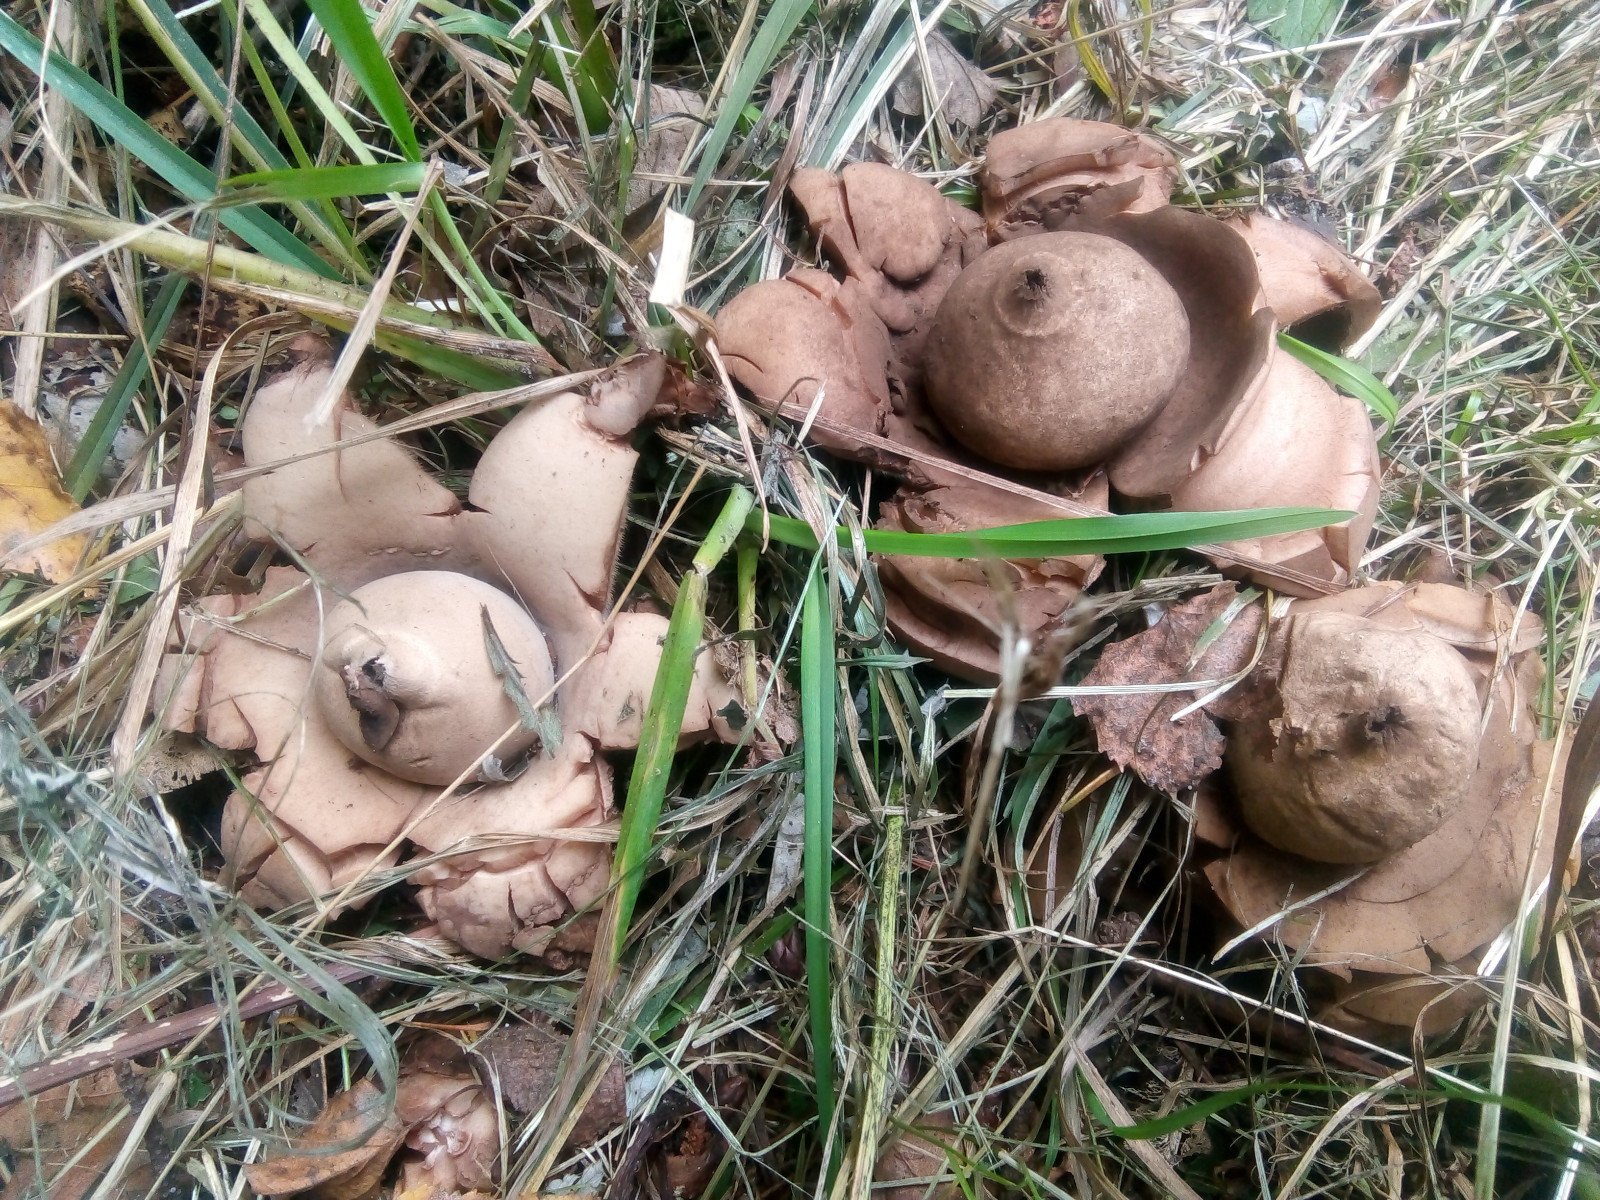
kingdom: Fungi
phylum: Basidiomycota
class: Agaricomycetes
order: Geastrales
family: Geastraceae
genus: Geastrum
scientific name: Geastrum michelianum
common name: kødet stjernebold
